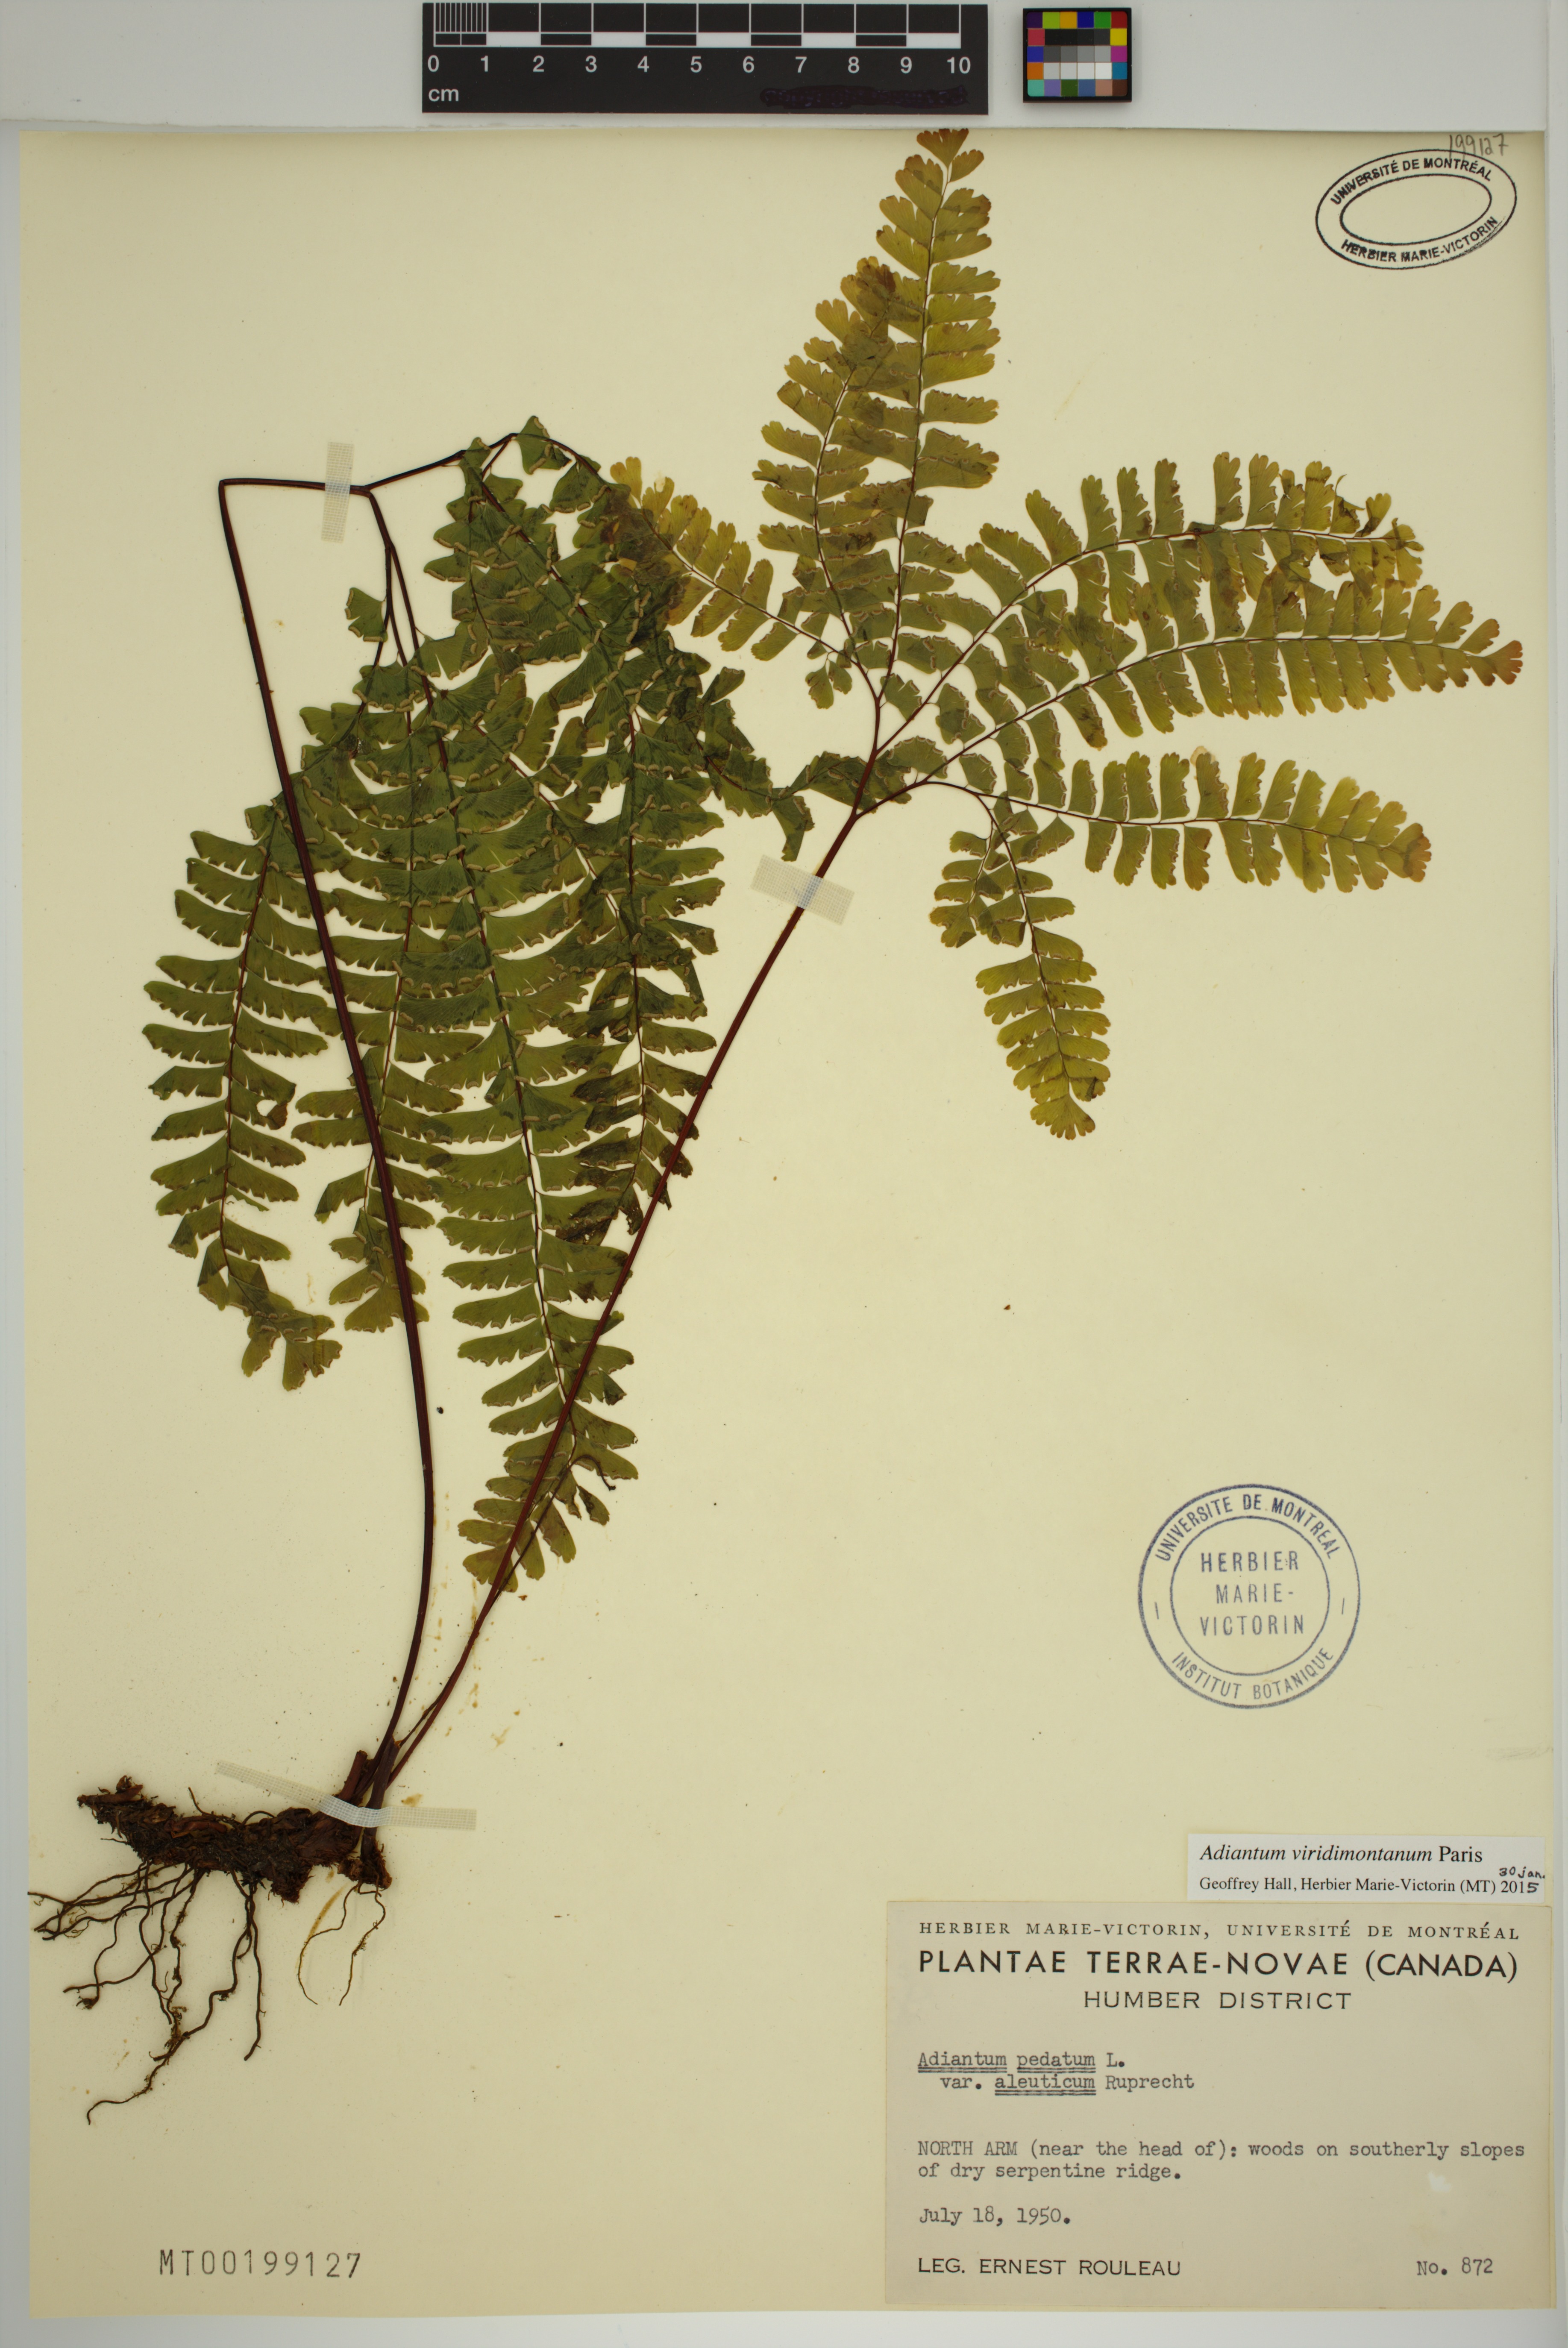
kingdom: Plantae
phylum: Tracheophyta
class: Polypodiopsida
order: Polypodiales
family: Pteridaceae
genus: Adiantum
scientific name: Adiantum viridimontanum
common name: Green mountain maidenhair
